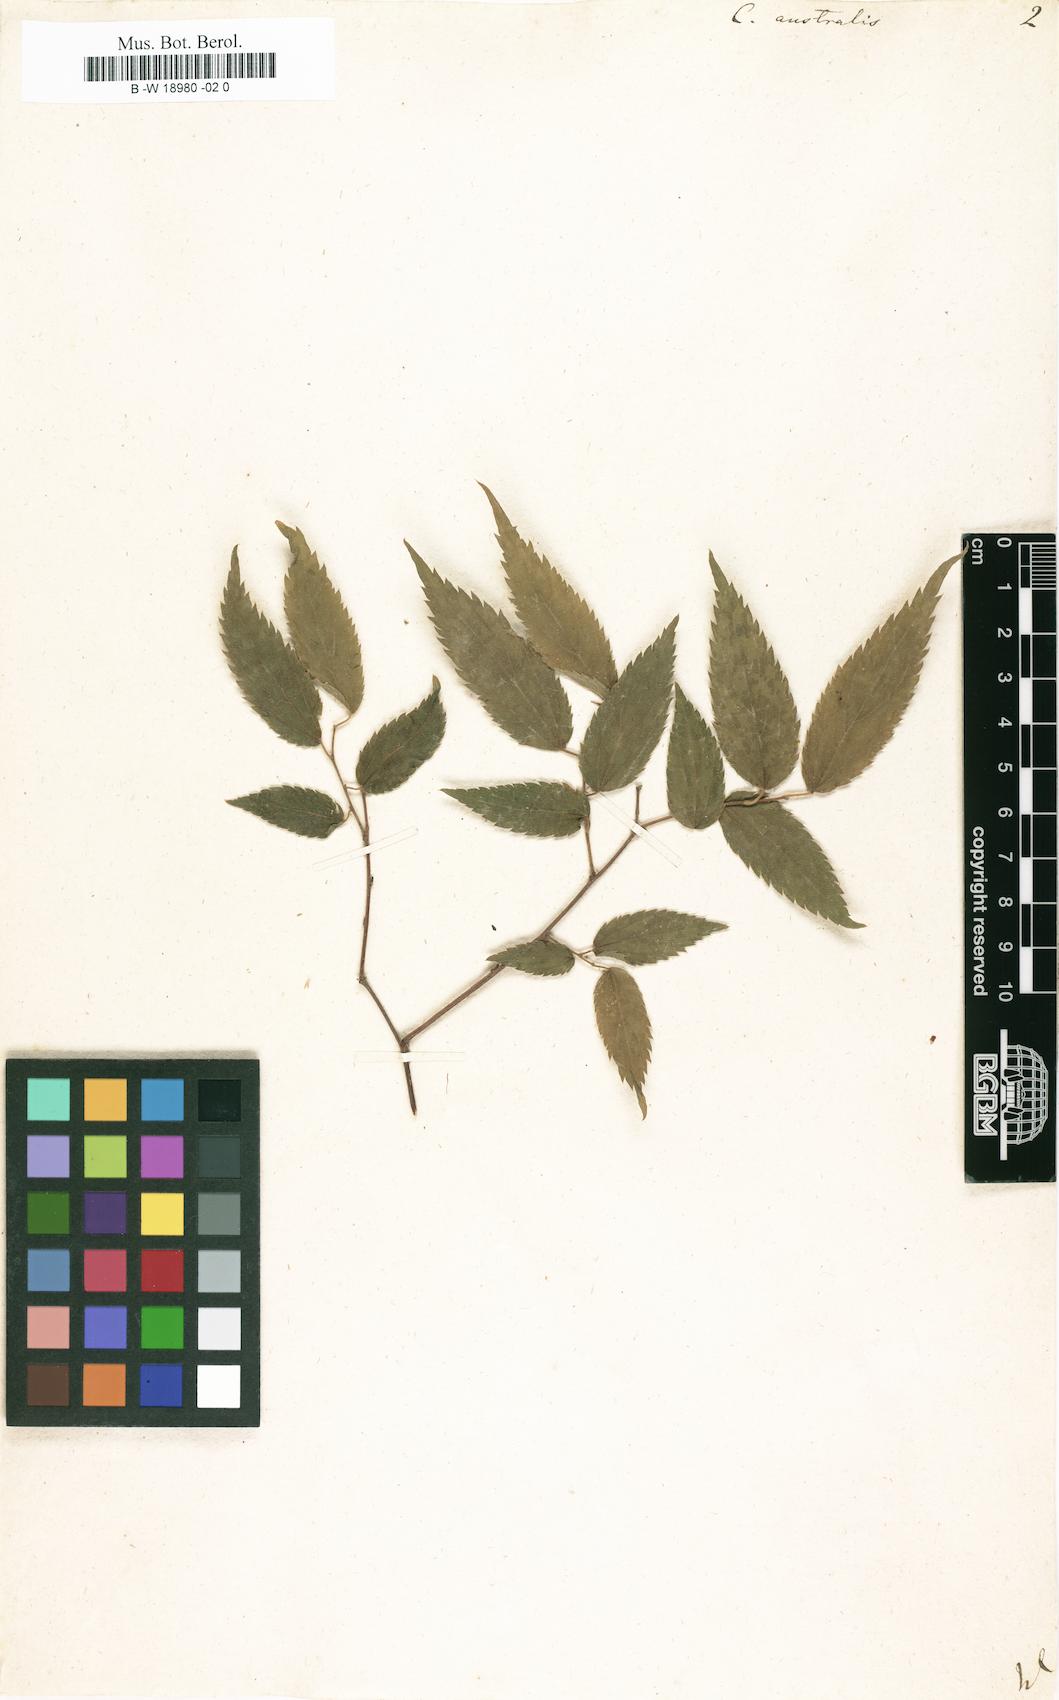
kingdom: Plantae
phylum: Tracheophyta
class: Magnoliopsida
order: Rosales
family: Cannabaceae
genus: Celtis
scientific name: Celtis australis
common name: European hackberry
